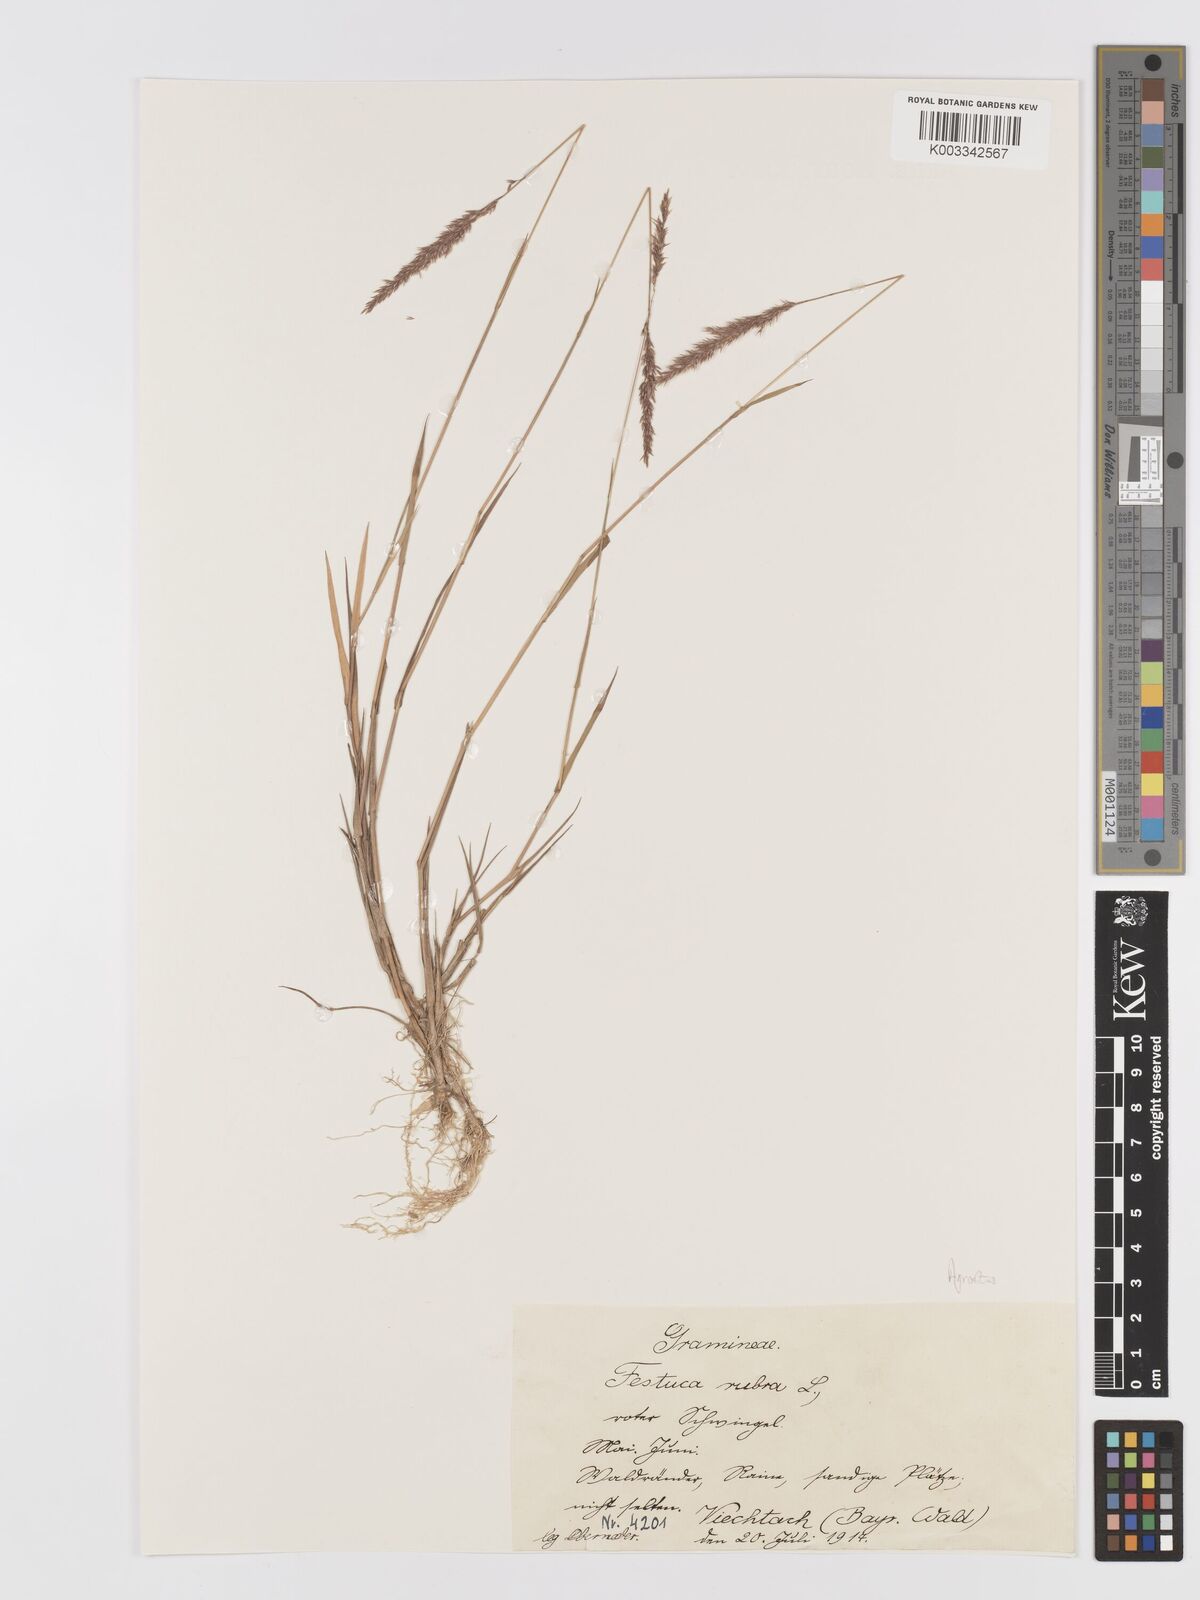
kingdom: Plantae
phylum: Tracheophyta
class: Liliopsida
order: Poales
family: Poaceae
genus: Agrostis
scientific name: Agrostis
